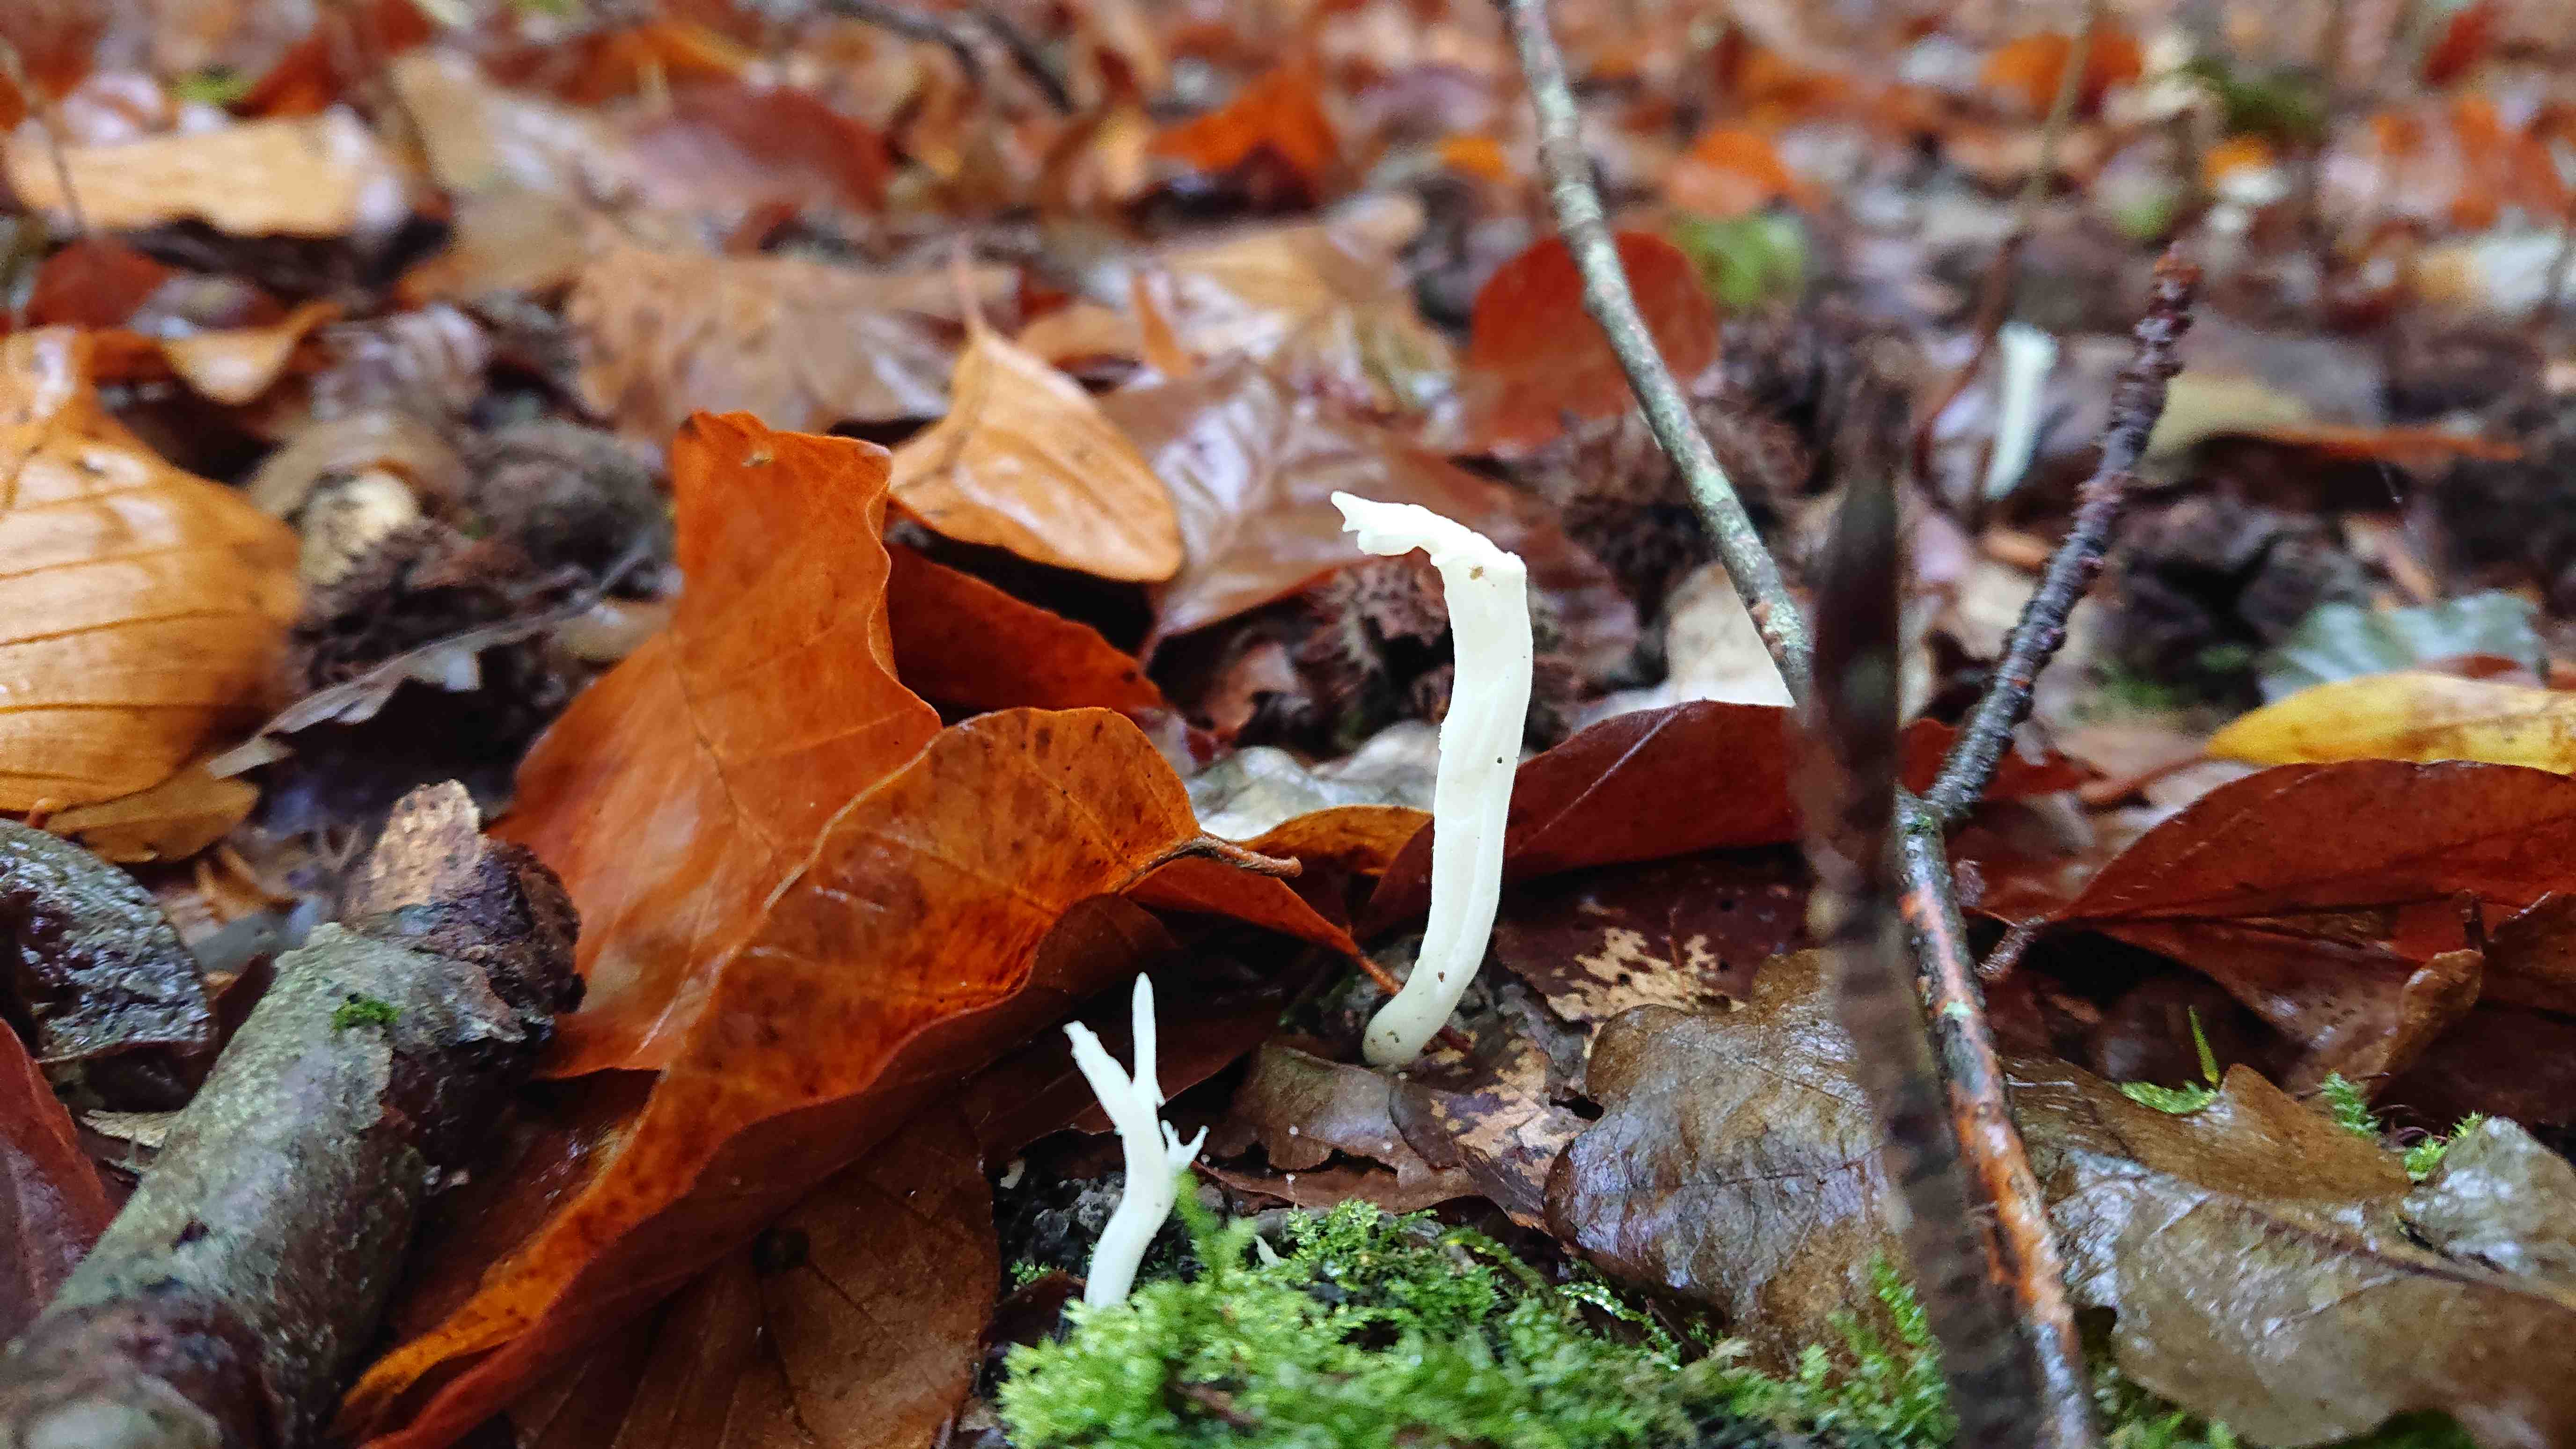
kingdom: Fungi
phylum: Basidiomycota
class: Agaricomycetes
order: Cantharellales
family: Hydnaceae
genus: Clavulina
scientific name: Clavulina
